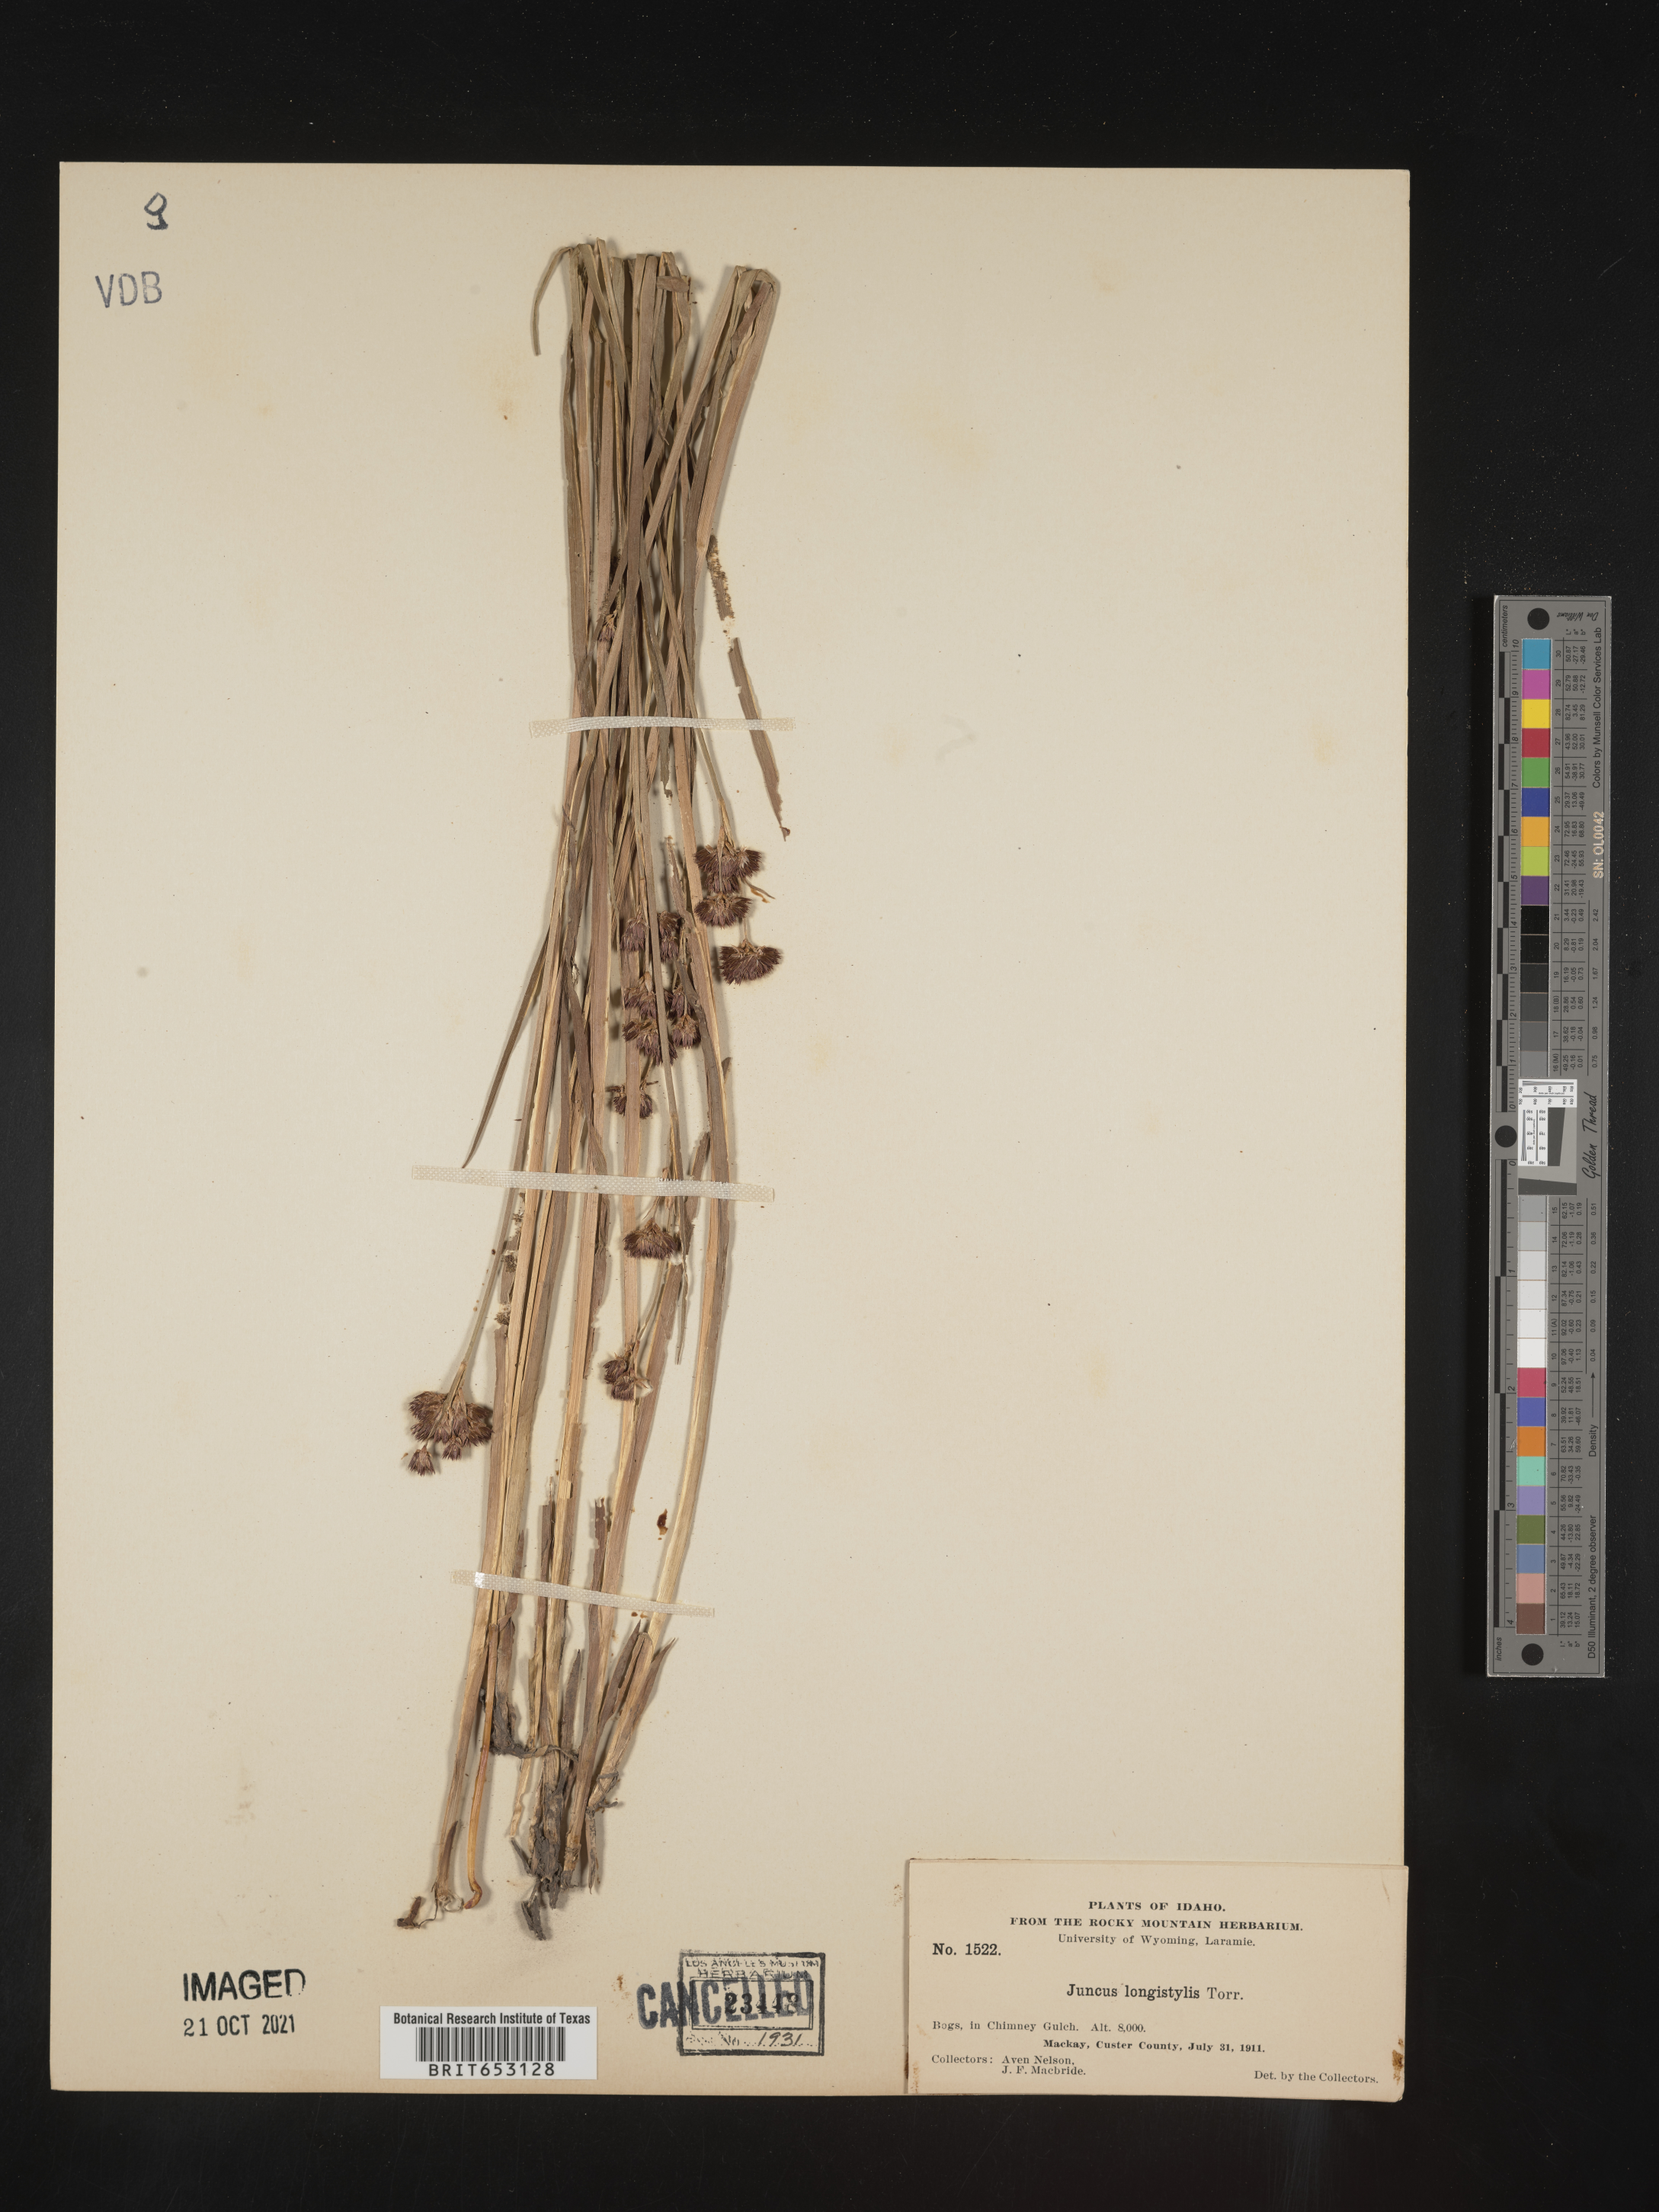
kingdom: Plantae
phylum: Tracheophyta
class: Liliopsida
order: Poales
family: Juncaceae
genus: Juncus
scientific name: Juncus longistylis
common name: Long-style rush
